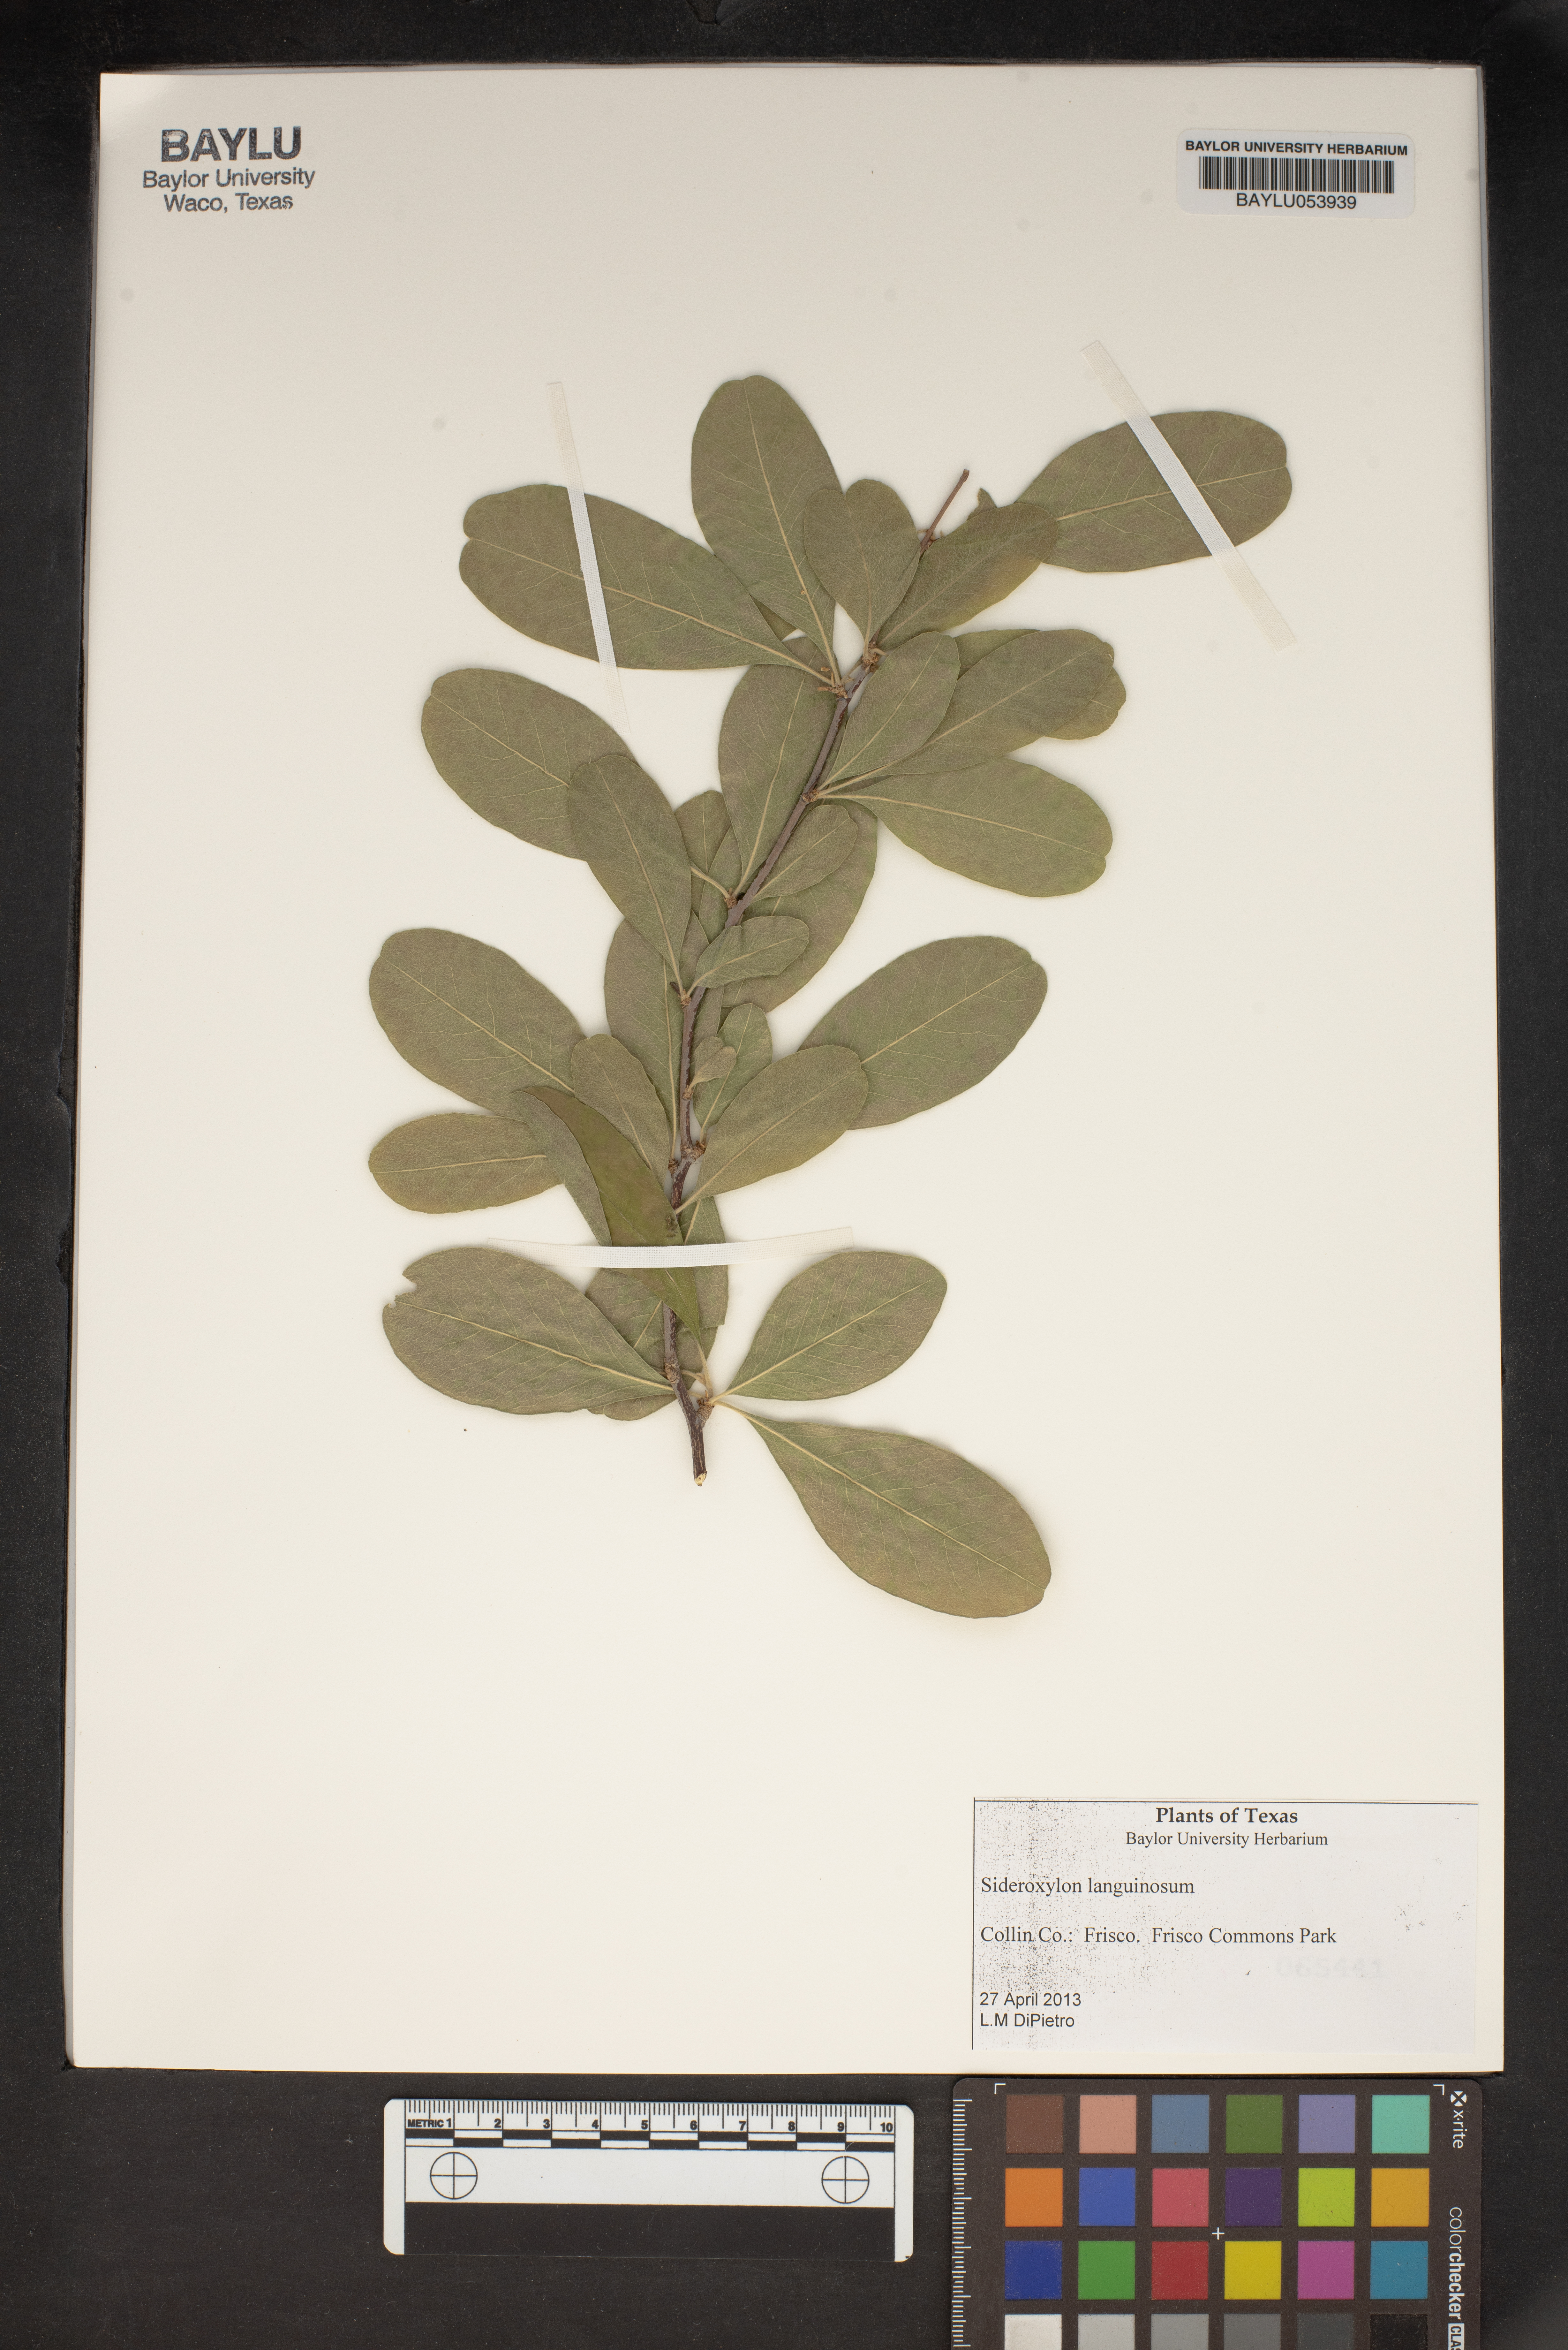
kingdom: Plantae
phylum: Tracheophyta
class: Magnoliopsida
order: Ericales
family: Sapotaceae
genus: Sideroxylon
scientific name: Sideroxylon lanuginosum
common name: Chittamwood
